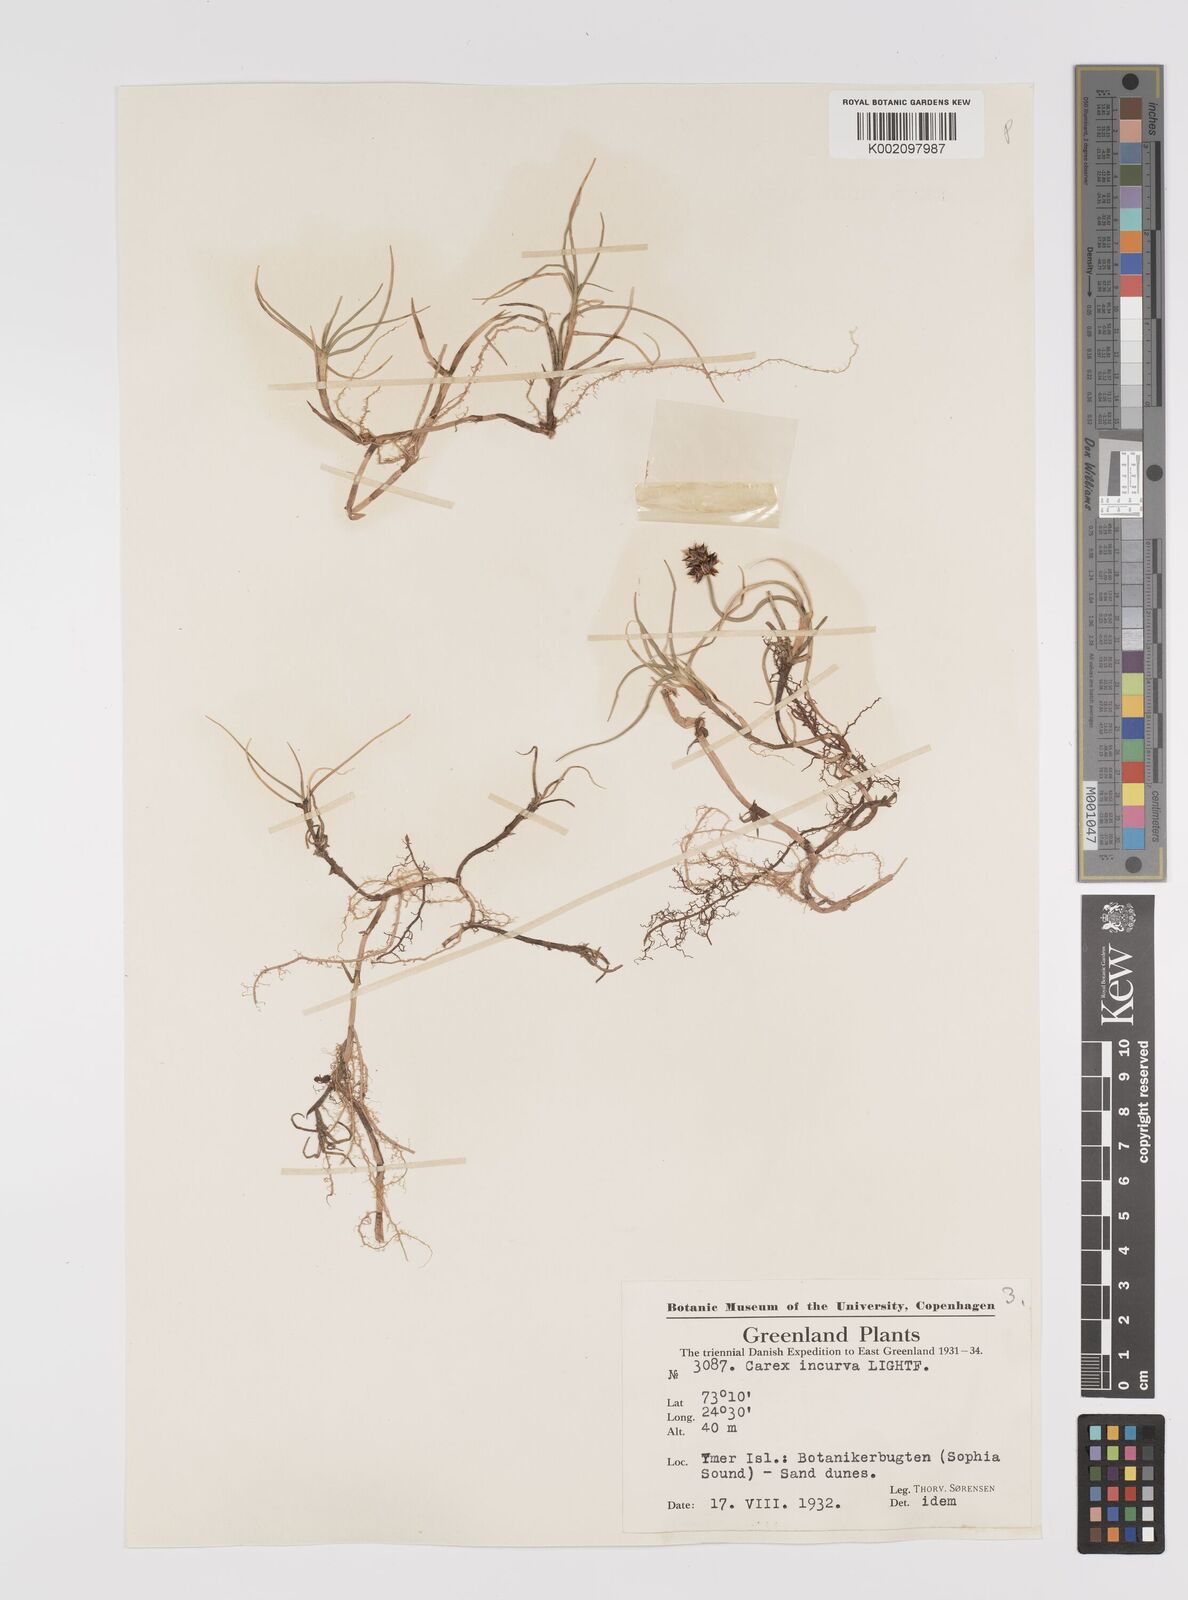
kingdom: Plantae
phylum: Tracheophyta
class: Liliopsida
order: Poales
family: Cyperaceae
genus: Carex
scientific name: Carex maritima
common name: Curved sedge
